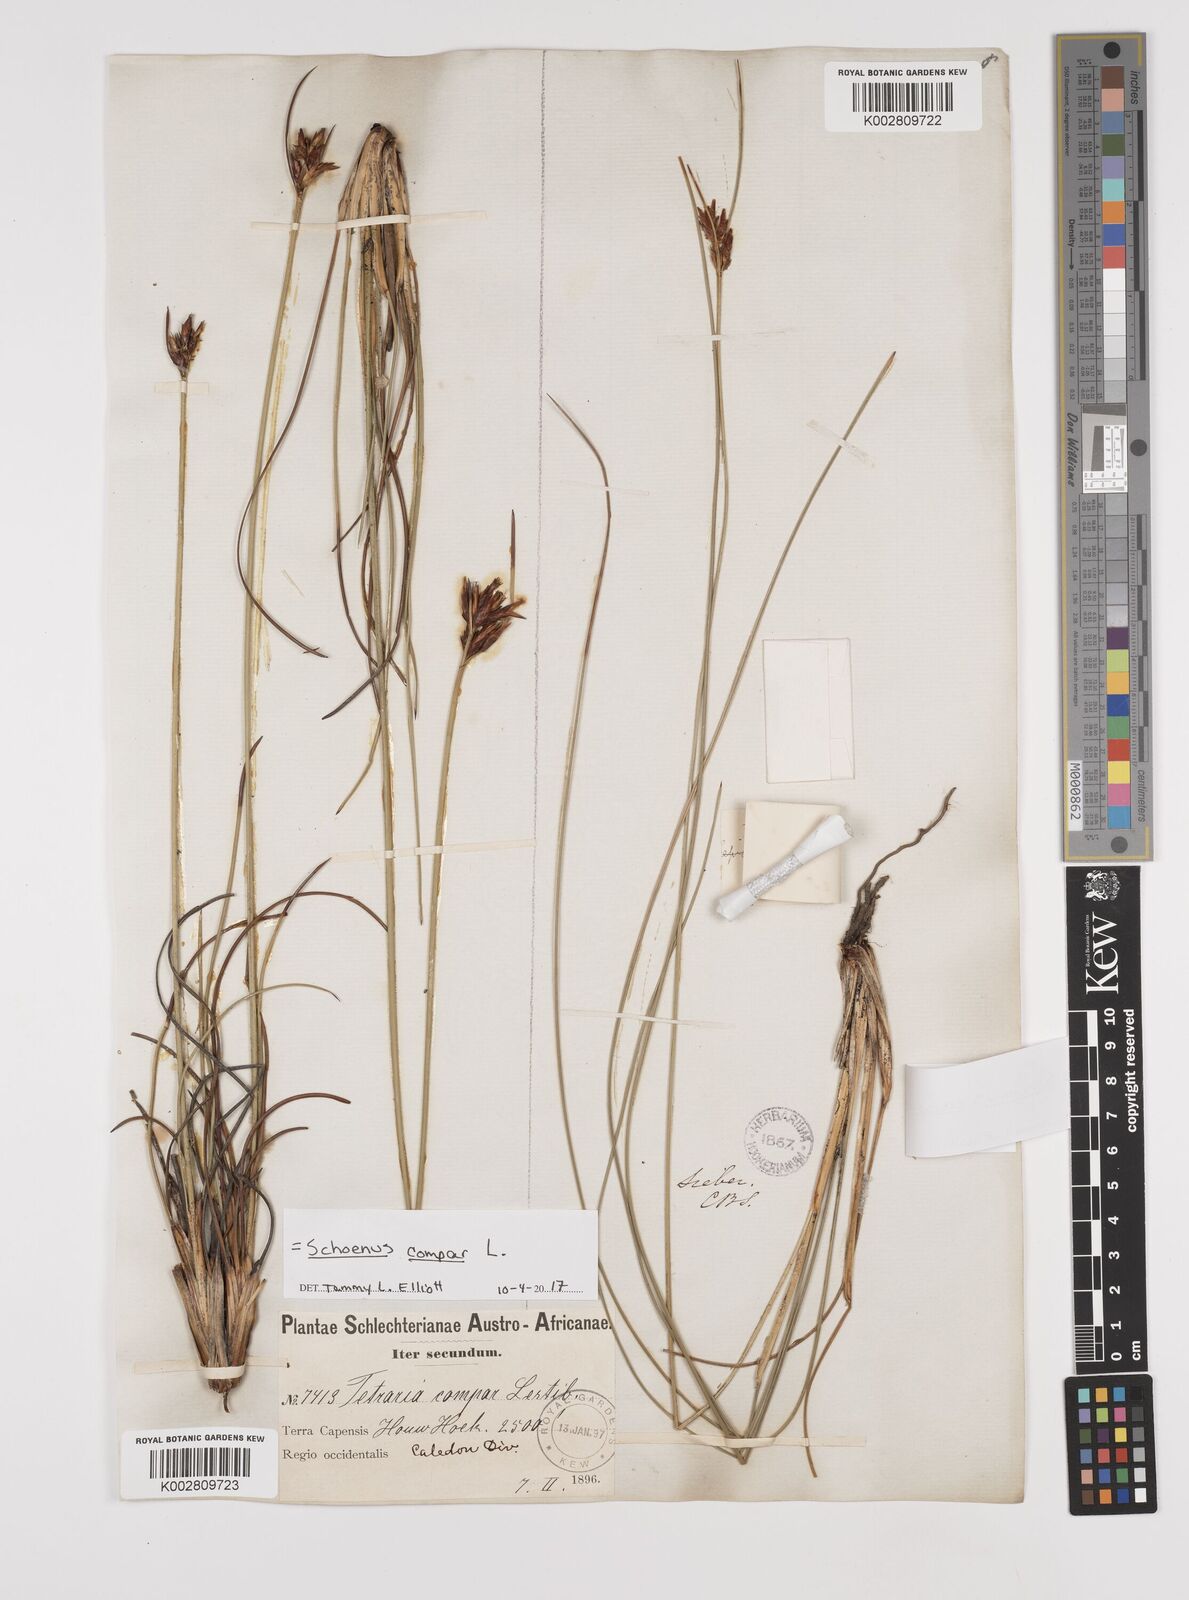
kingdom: Plantae
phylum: Tracheophyta
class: Liliopsida
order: Poales
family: Cyperaceae
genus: Schoenus
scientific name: Schoenus compar
